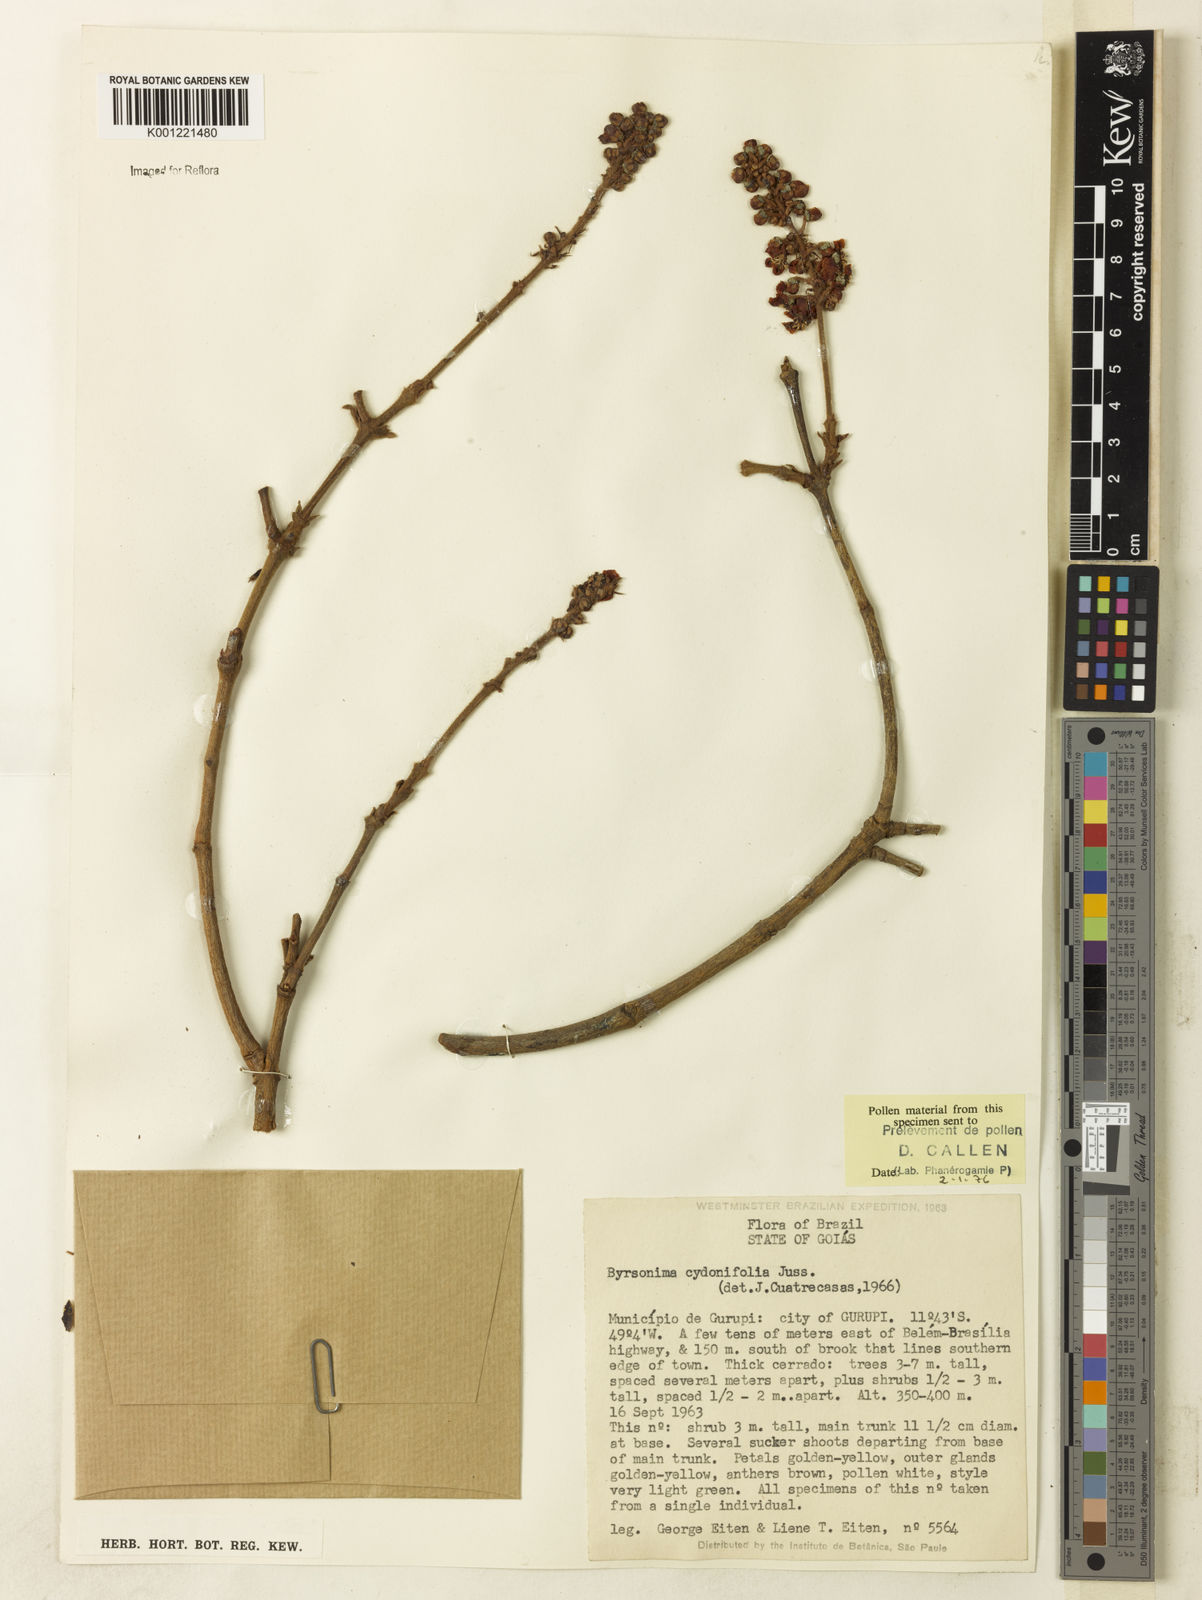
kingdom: Plantae
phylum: Tracheophyta
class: Magnoliopsida
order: Malpighiales
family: Malpighiaceae
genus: Byrsonima
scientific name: Byrsonima cydoniifolia
